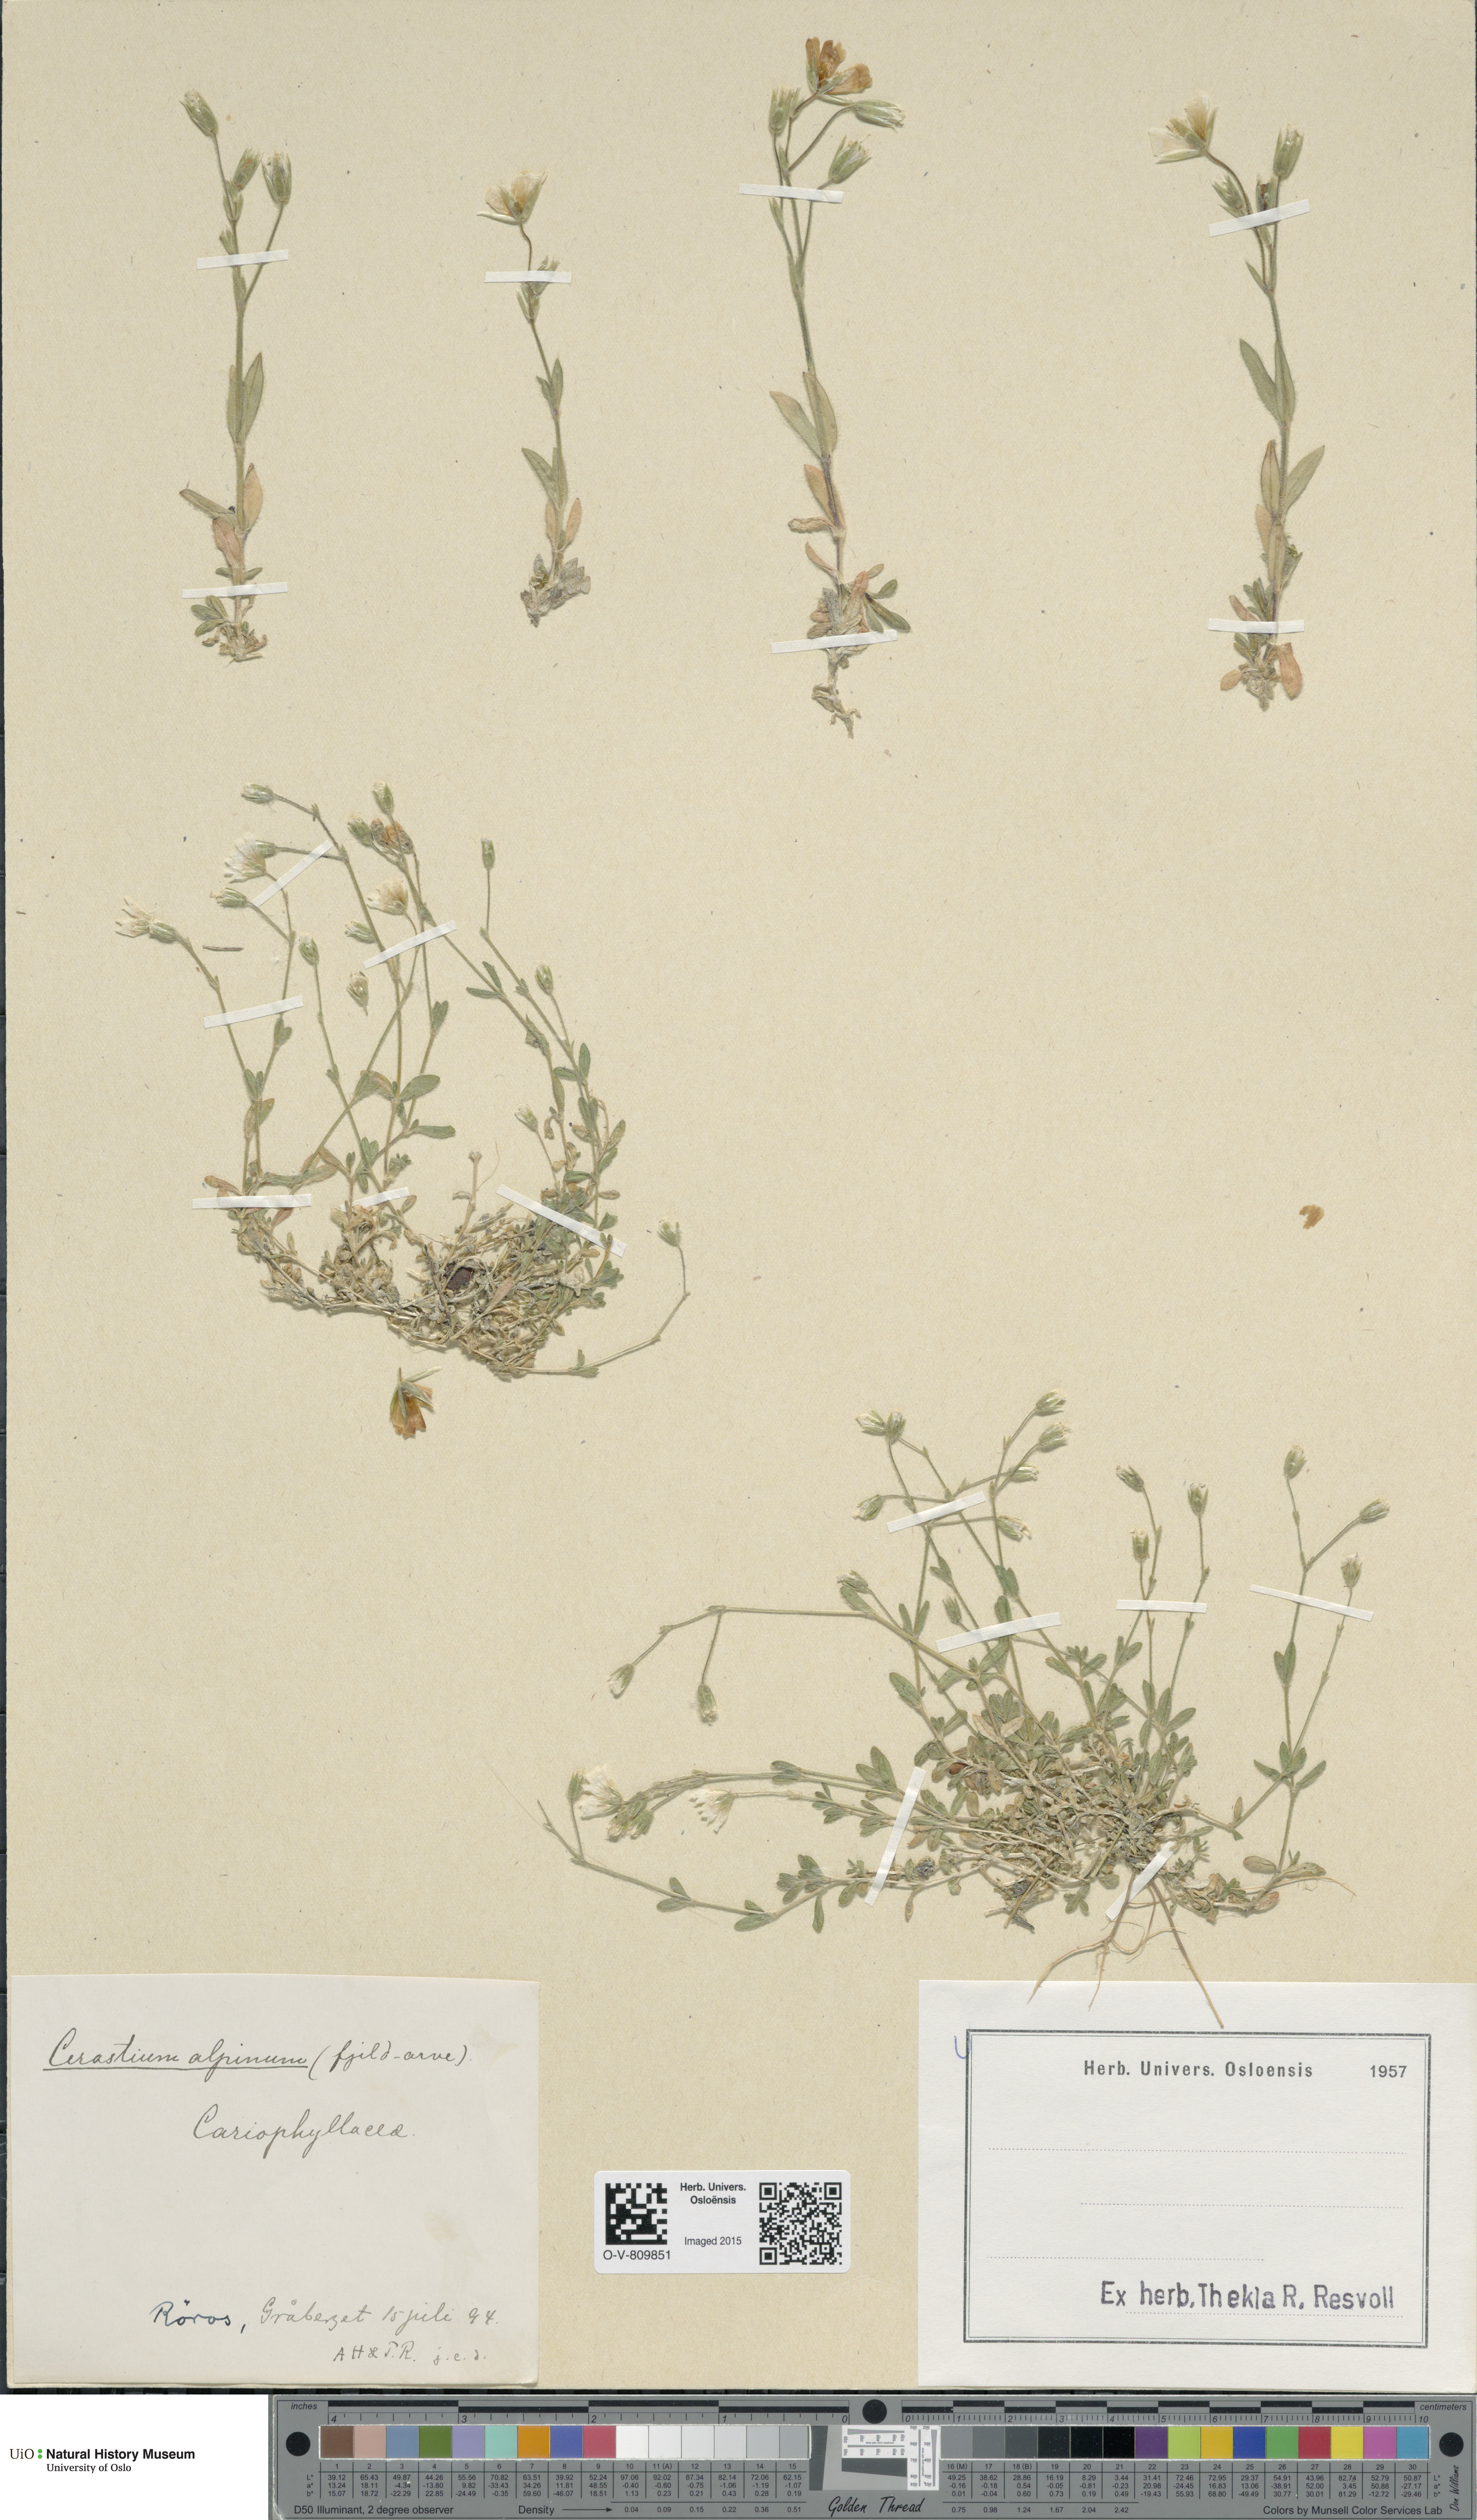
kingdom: Plantae
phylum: Tracheophyta
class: Magnoliopsida
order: Caryophyllales
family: Caryophyllaceae
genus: Cerastium
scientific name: Cerastium alpinum
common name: Alpine mouse-ear
